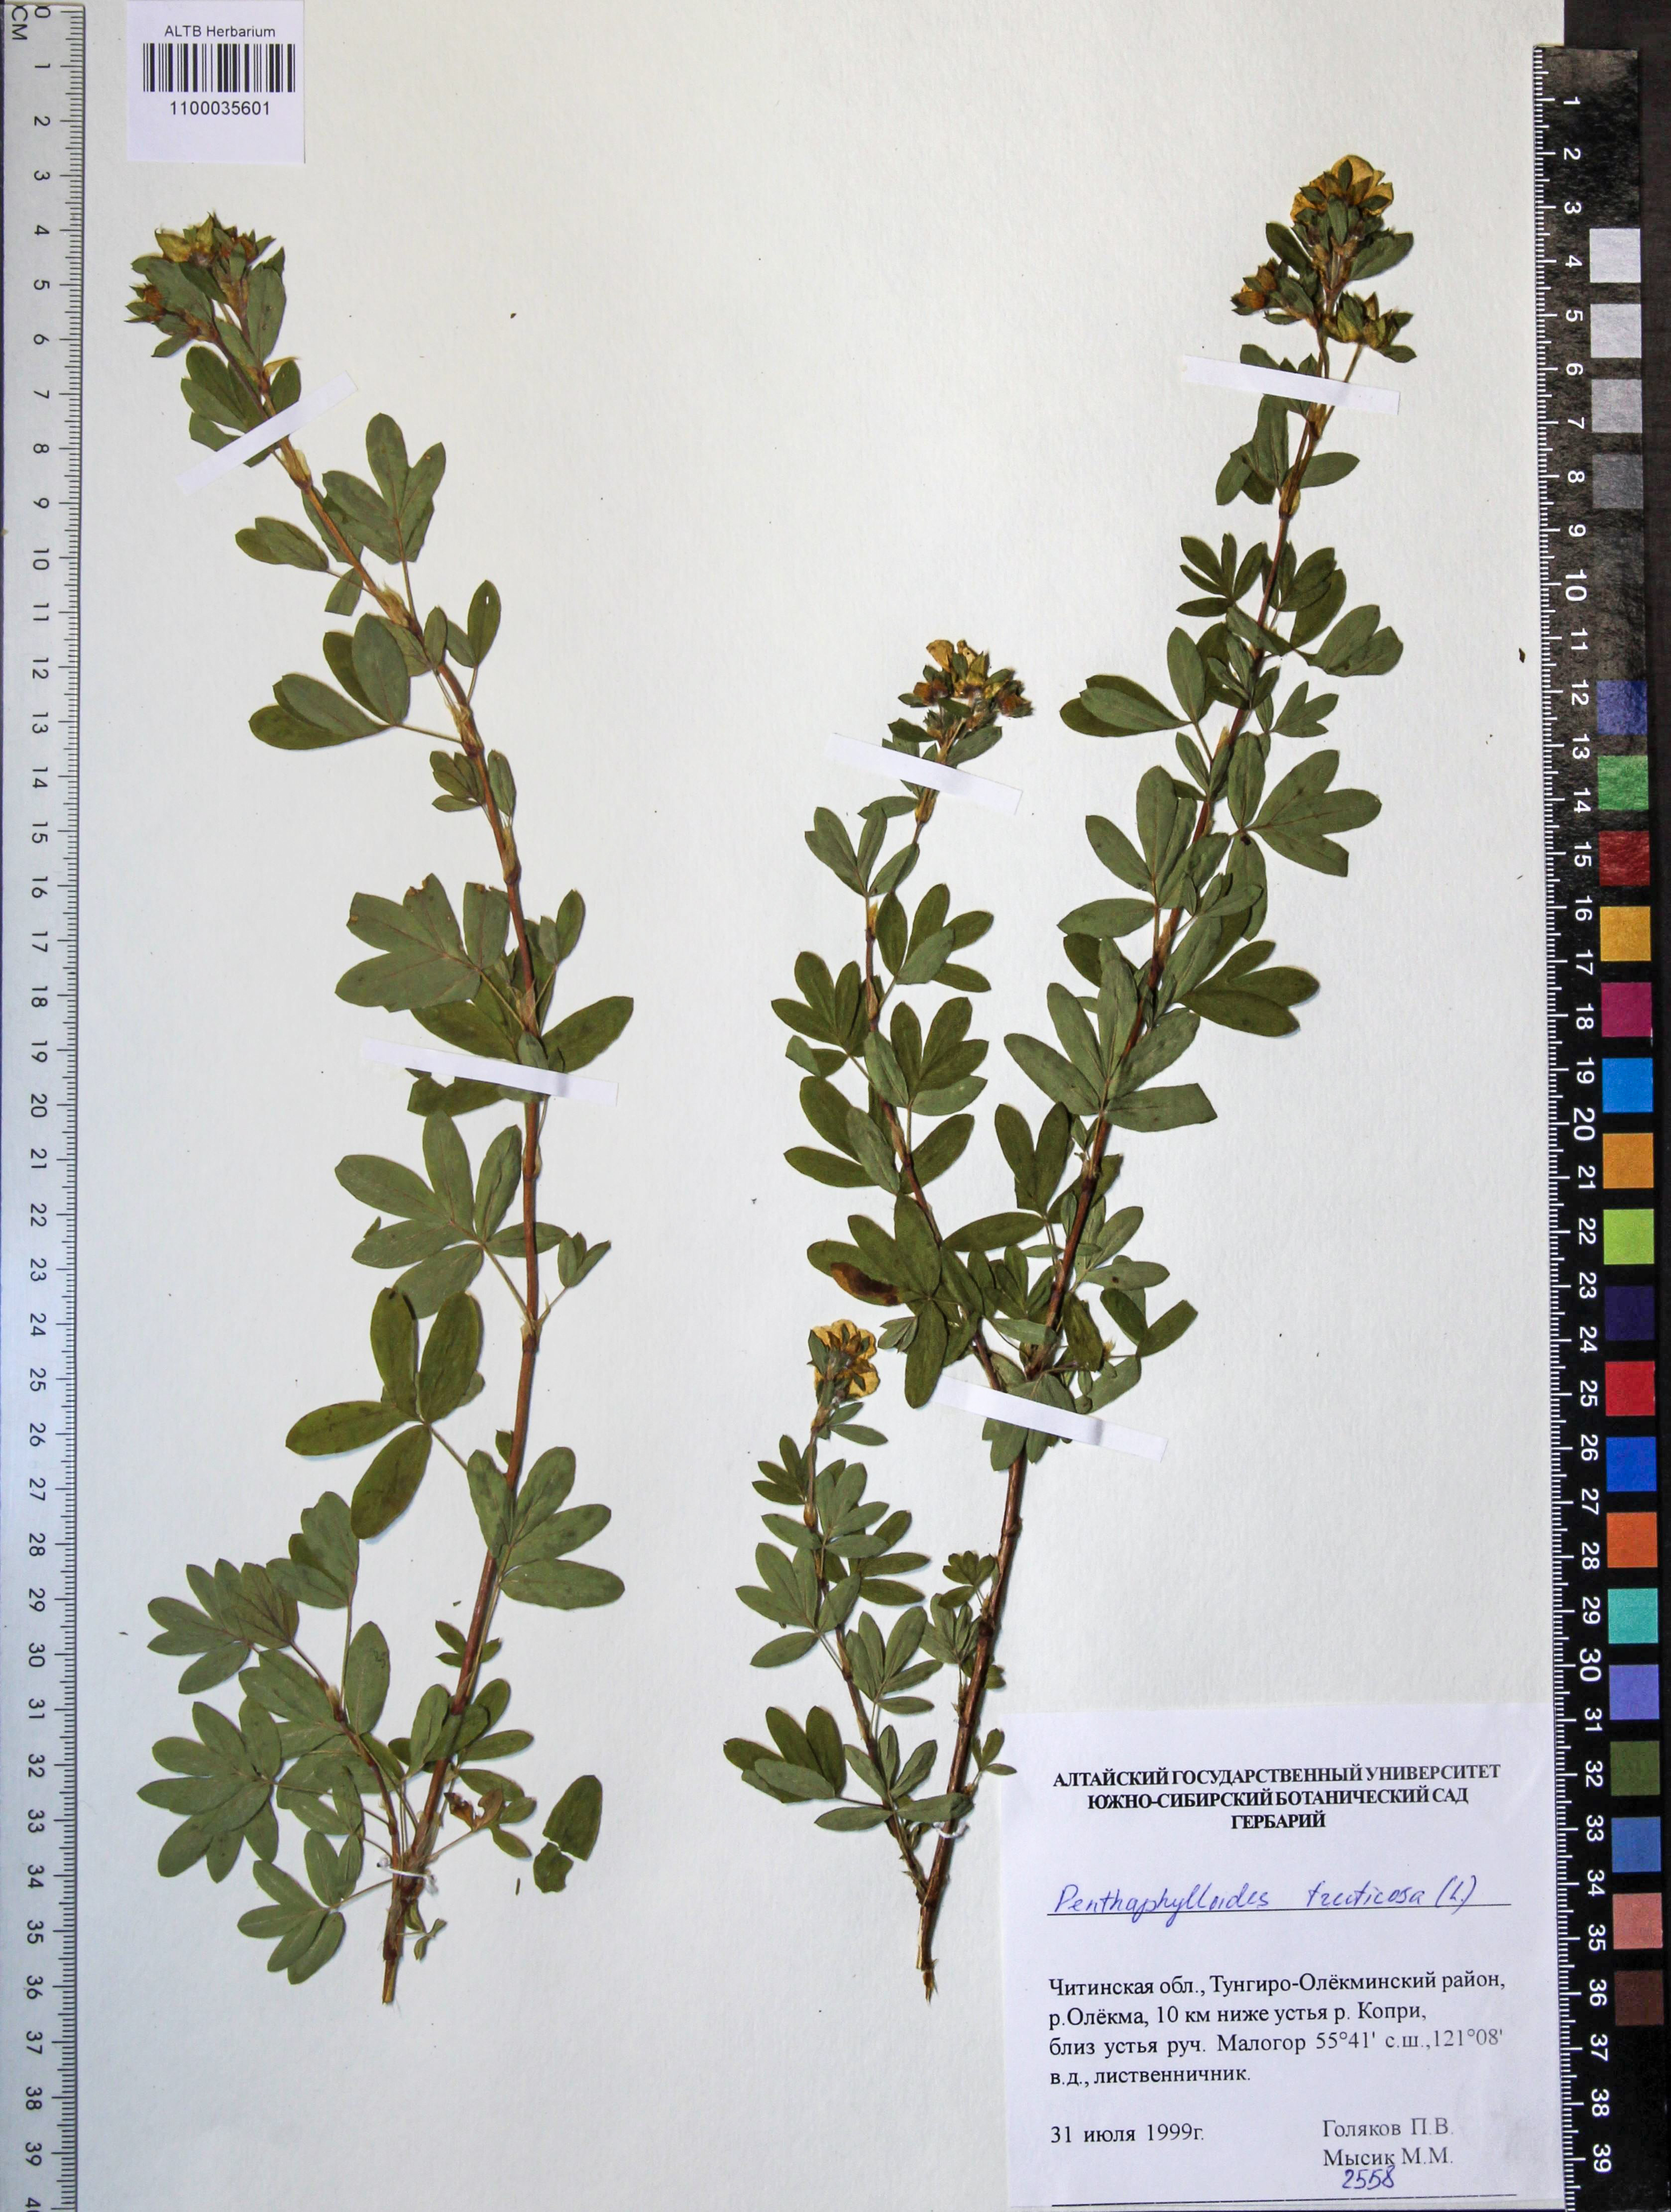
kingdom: Plantae
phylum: Tracheophyta
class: Magnoliopsida
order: Rosales
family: Rosaceae
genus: Dasiphora
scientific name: Dasiphora fruticosa
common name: Shrubby cinquefoil
